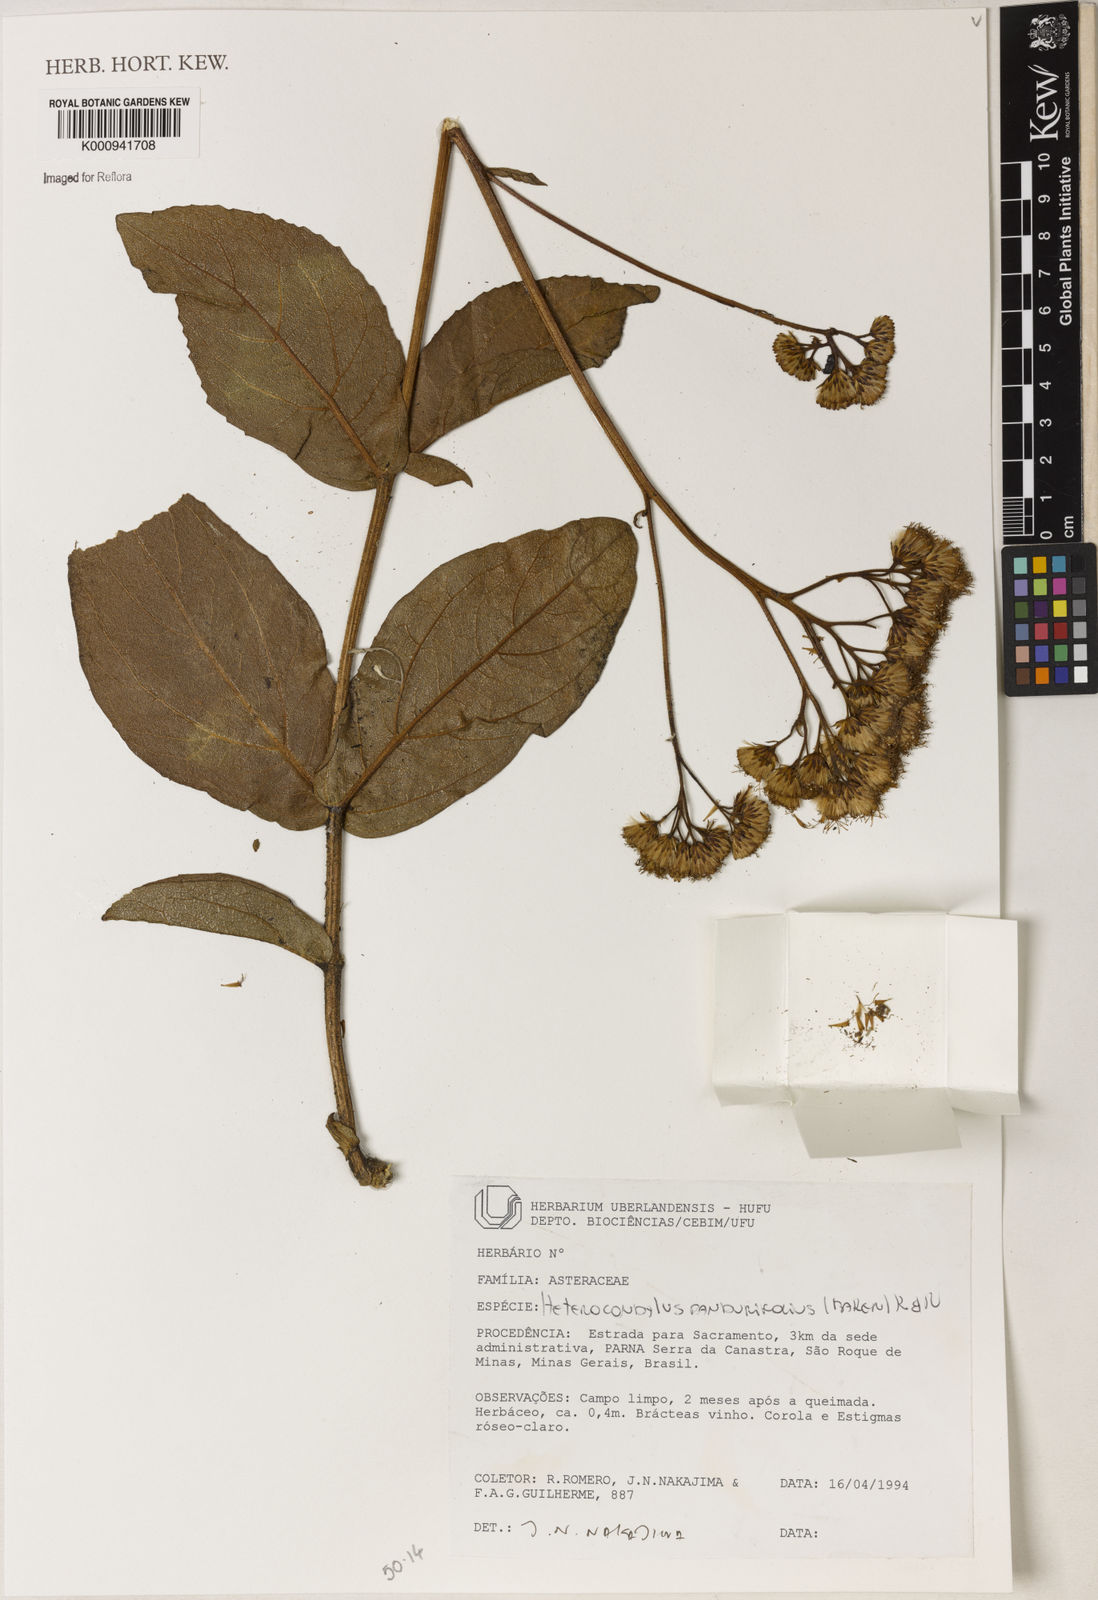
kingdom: Plantae
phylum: Tracheophyta
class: Magnoliopsida
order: Asterales
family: Asteraceae
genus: Heterocondylus
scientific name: Heterocondylus amphidictyus
